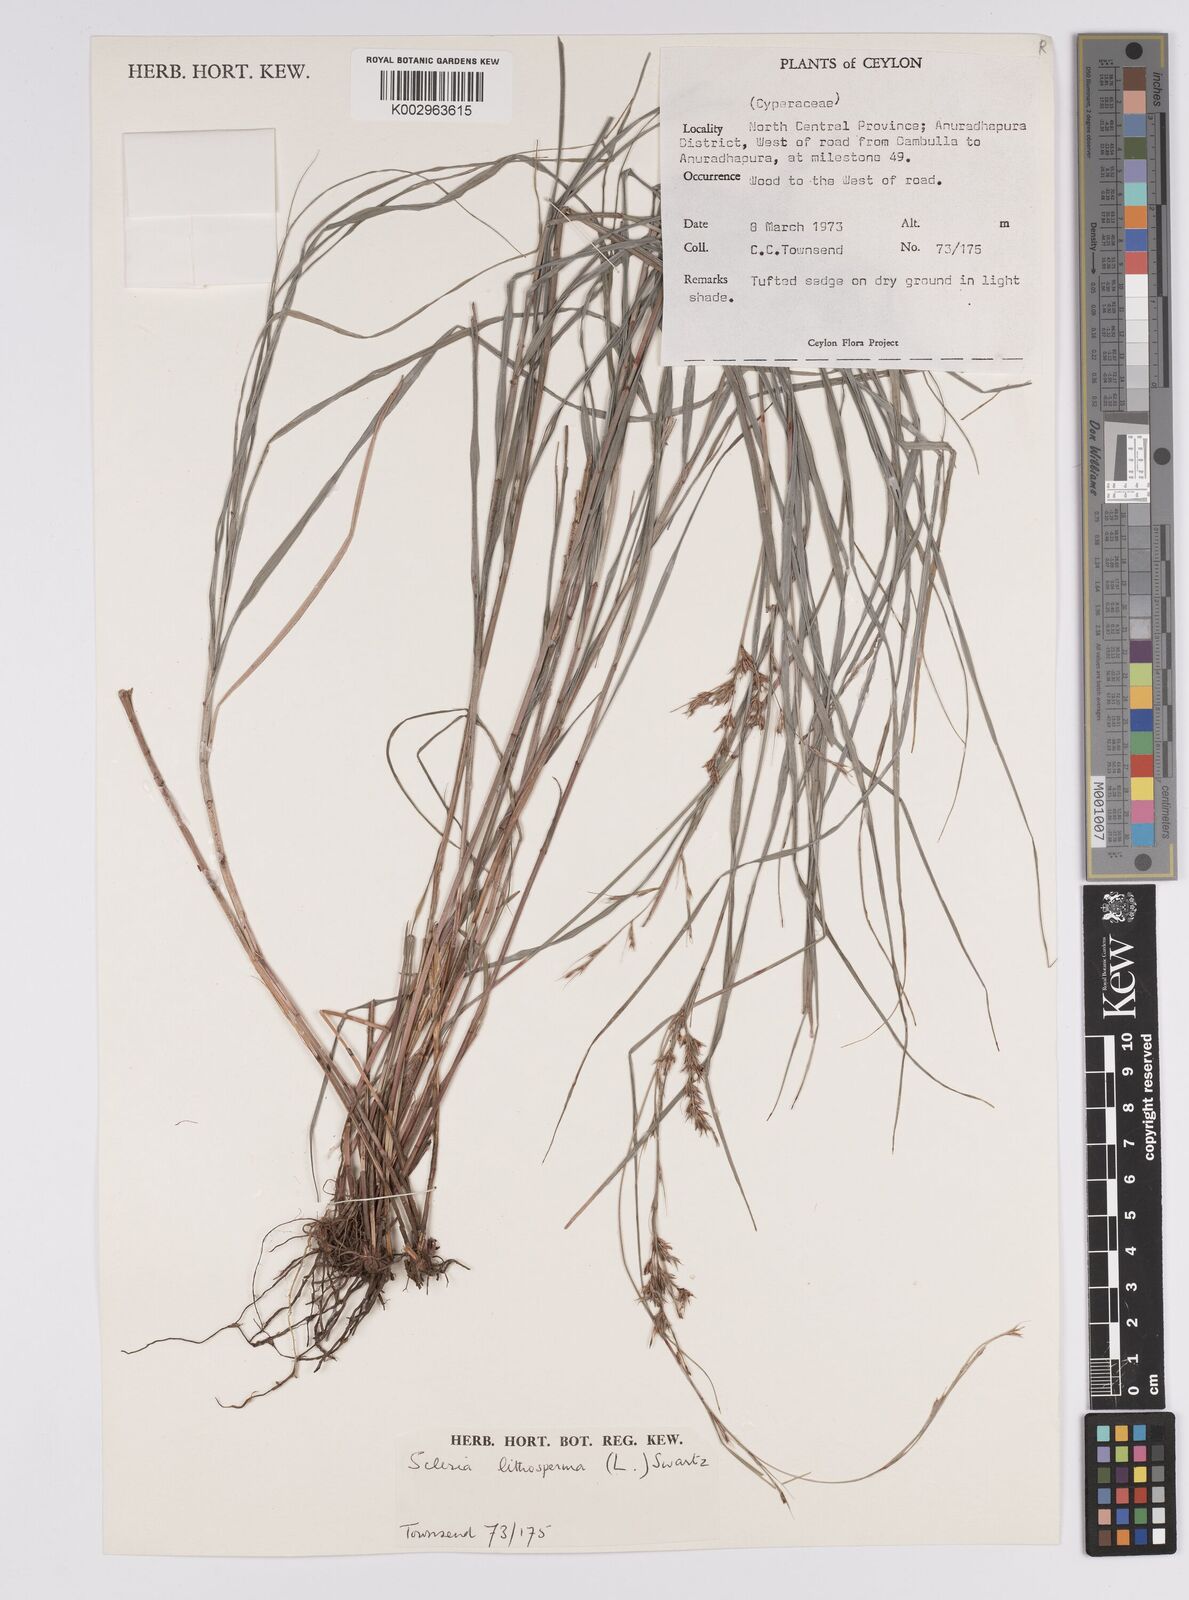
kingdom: Plantae
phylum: Tracheophyta
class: Liliopsida
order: Poales
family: Cyperaceae
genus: Scleria
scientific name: Scleria lithosperma
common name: Florida keys nut-rush
